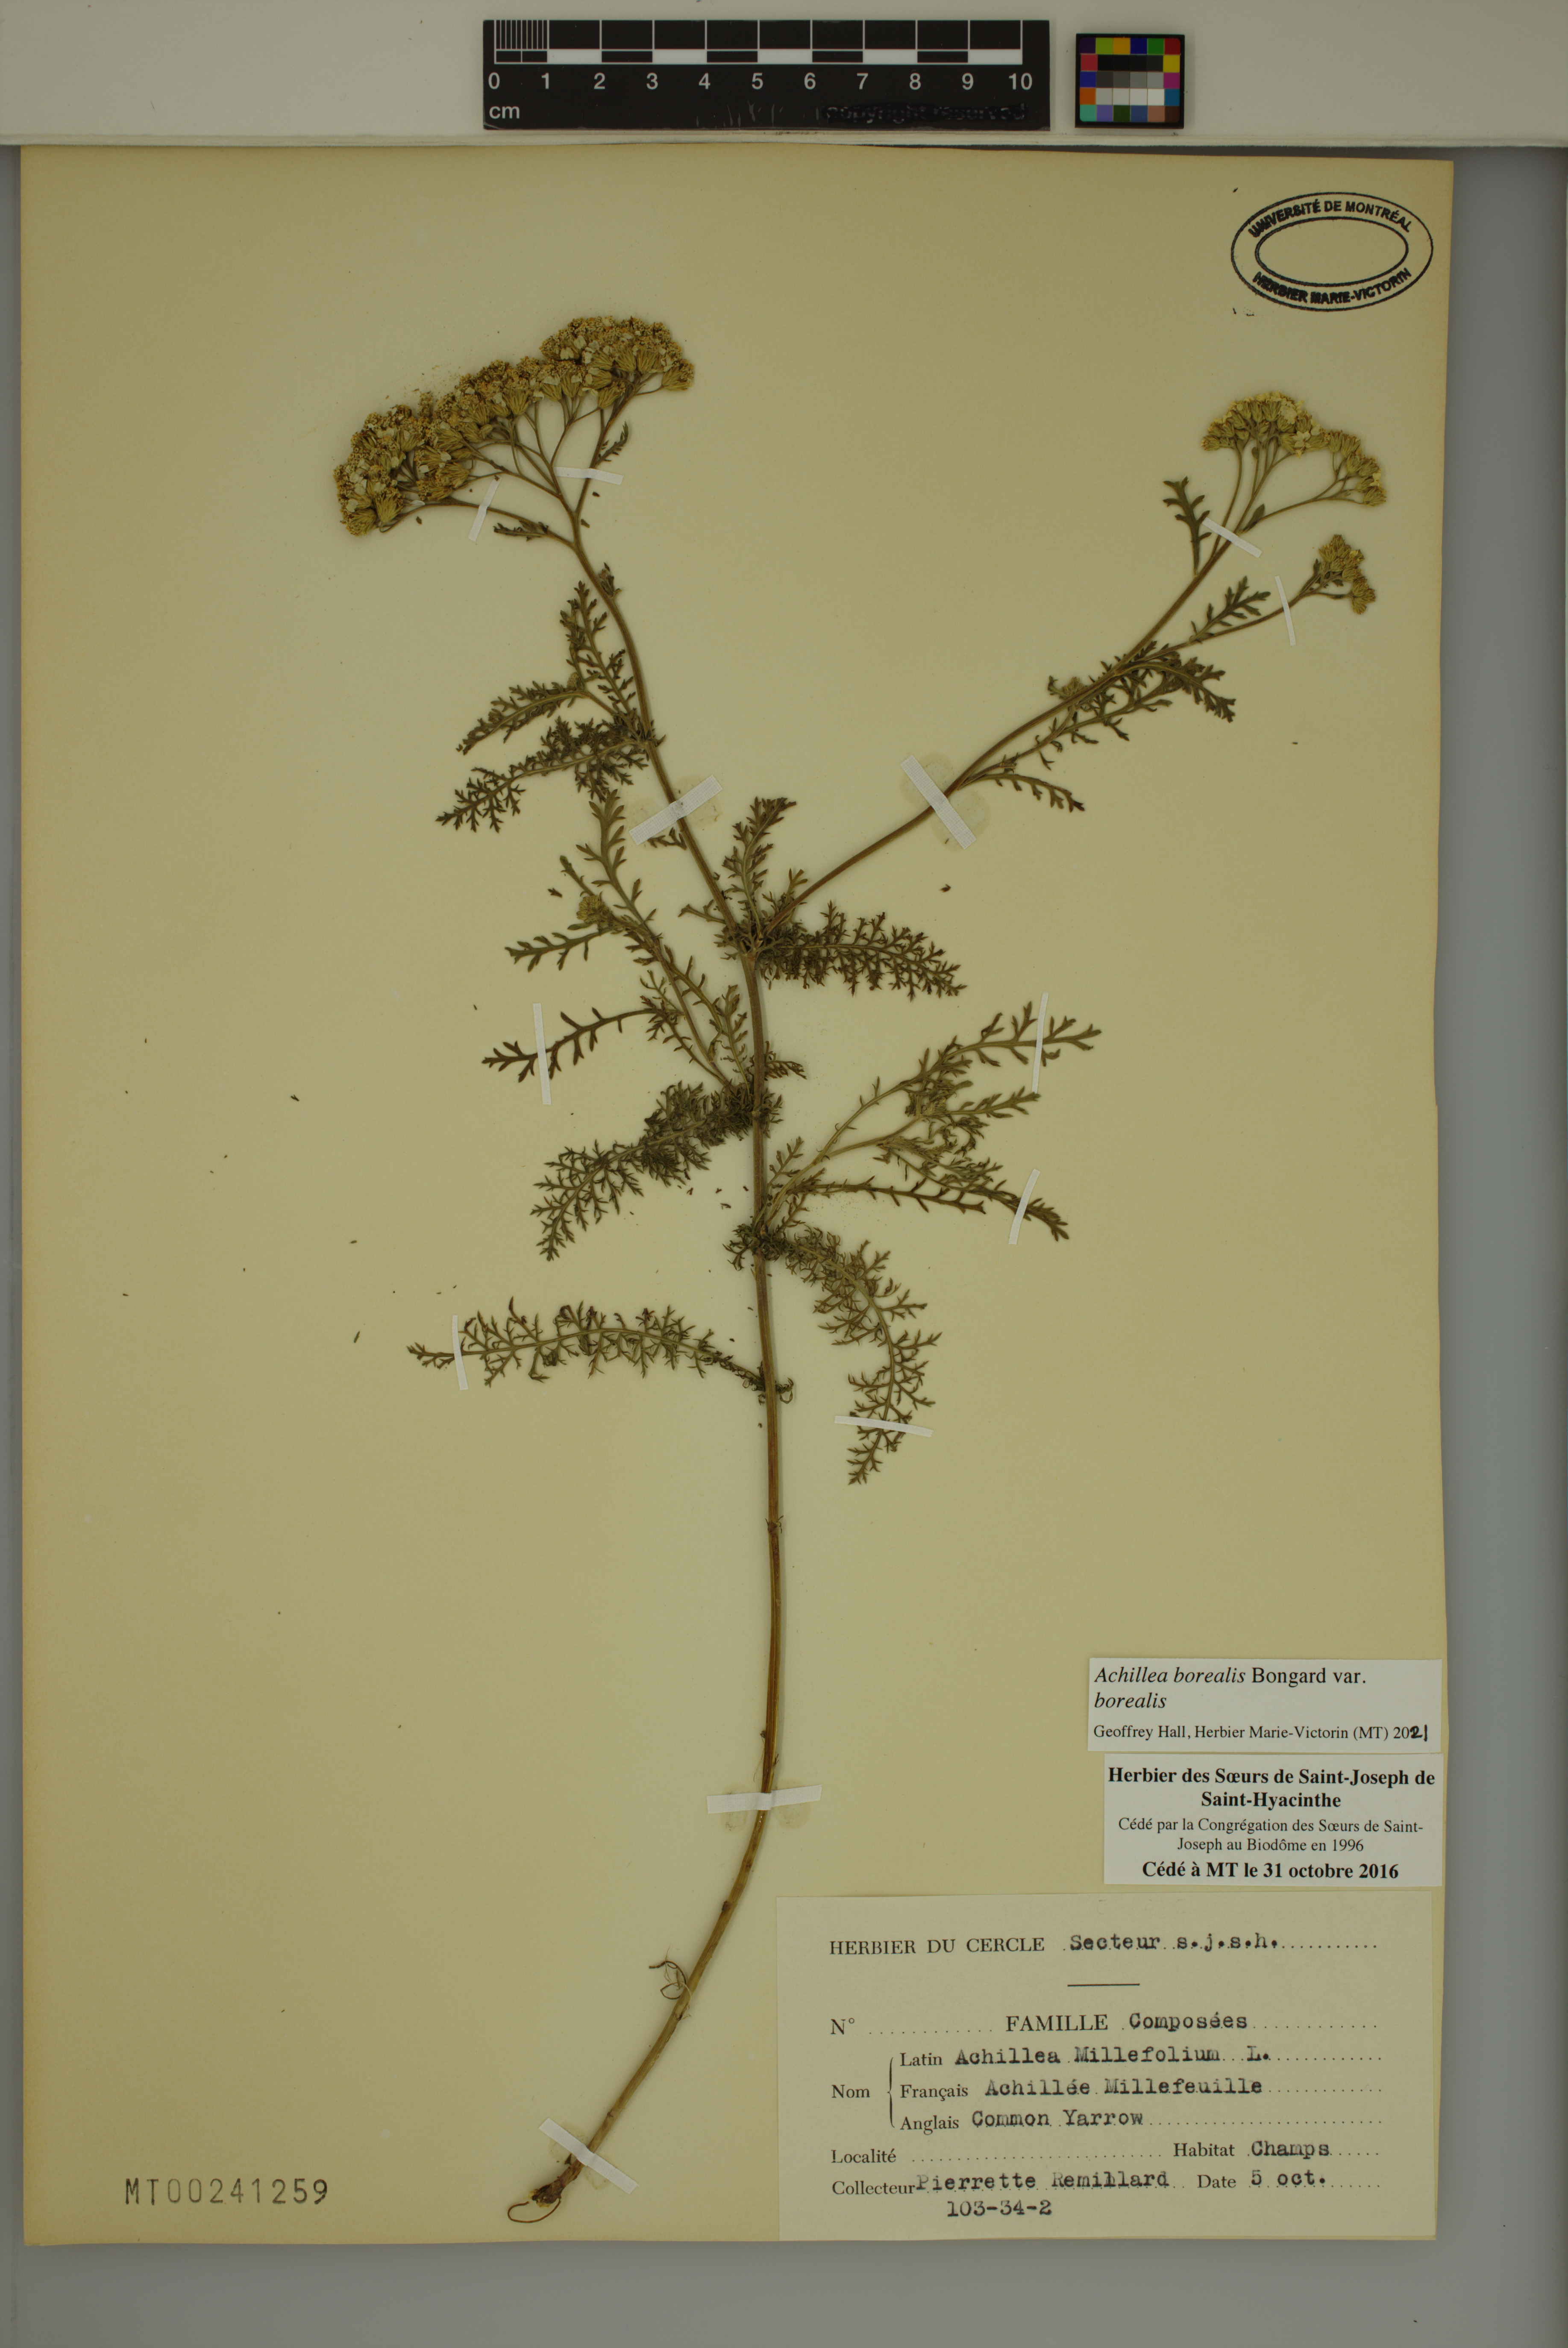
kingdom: Plantae
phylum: Tracheophyta
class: Magnoliopsida
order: Asterales
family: Asteraceae
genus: Achillea
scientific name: Achillea millefolium
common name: Yarrow
